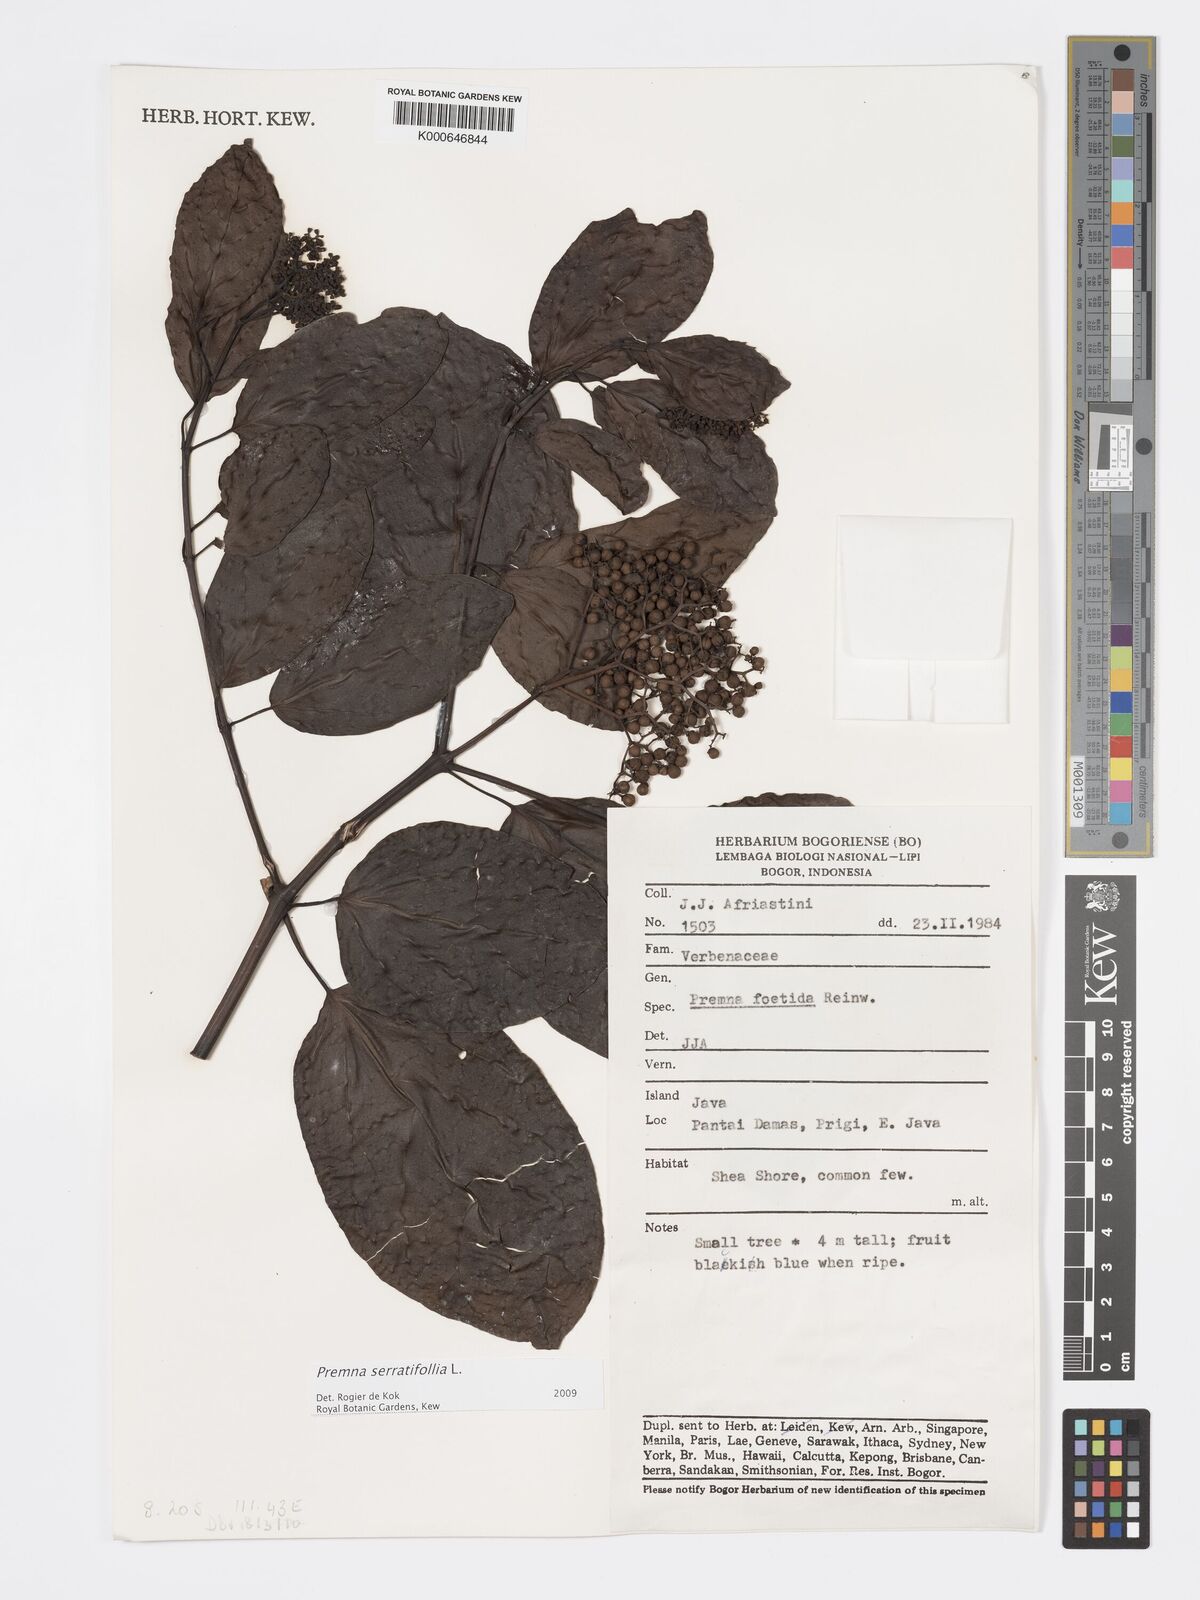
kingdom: Plantae
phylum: Tracheophyta
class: Magnoliopsida
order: Lamiales
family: Lamiaceae
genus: Premna
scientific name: Premna serratifolia
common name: Bastard guelder
